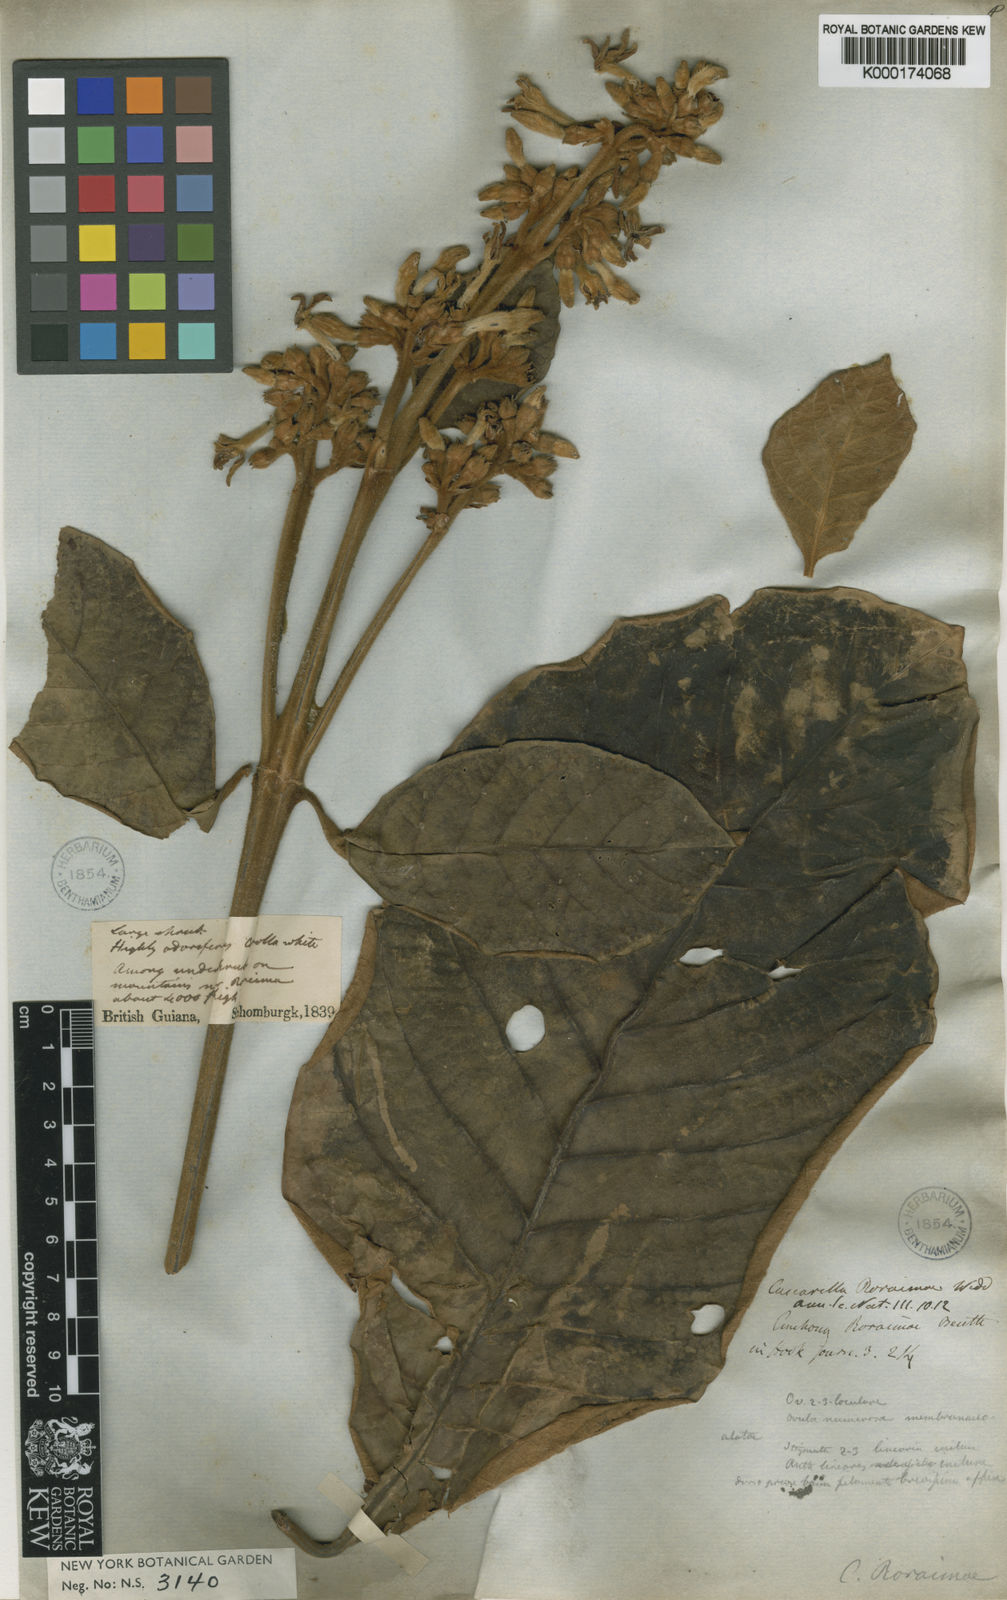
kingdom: Plantae
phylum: Tracheophyta
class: Magnoliopsida
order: Gentianales
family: Rubiaceae
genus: Remijia
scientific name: Remijia roraimae
